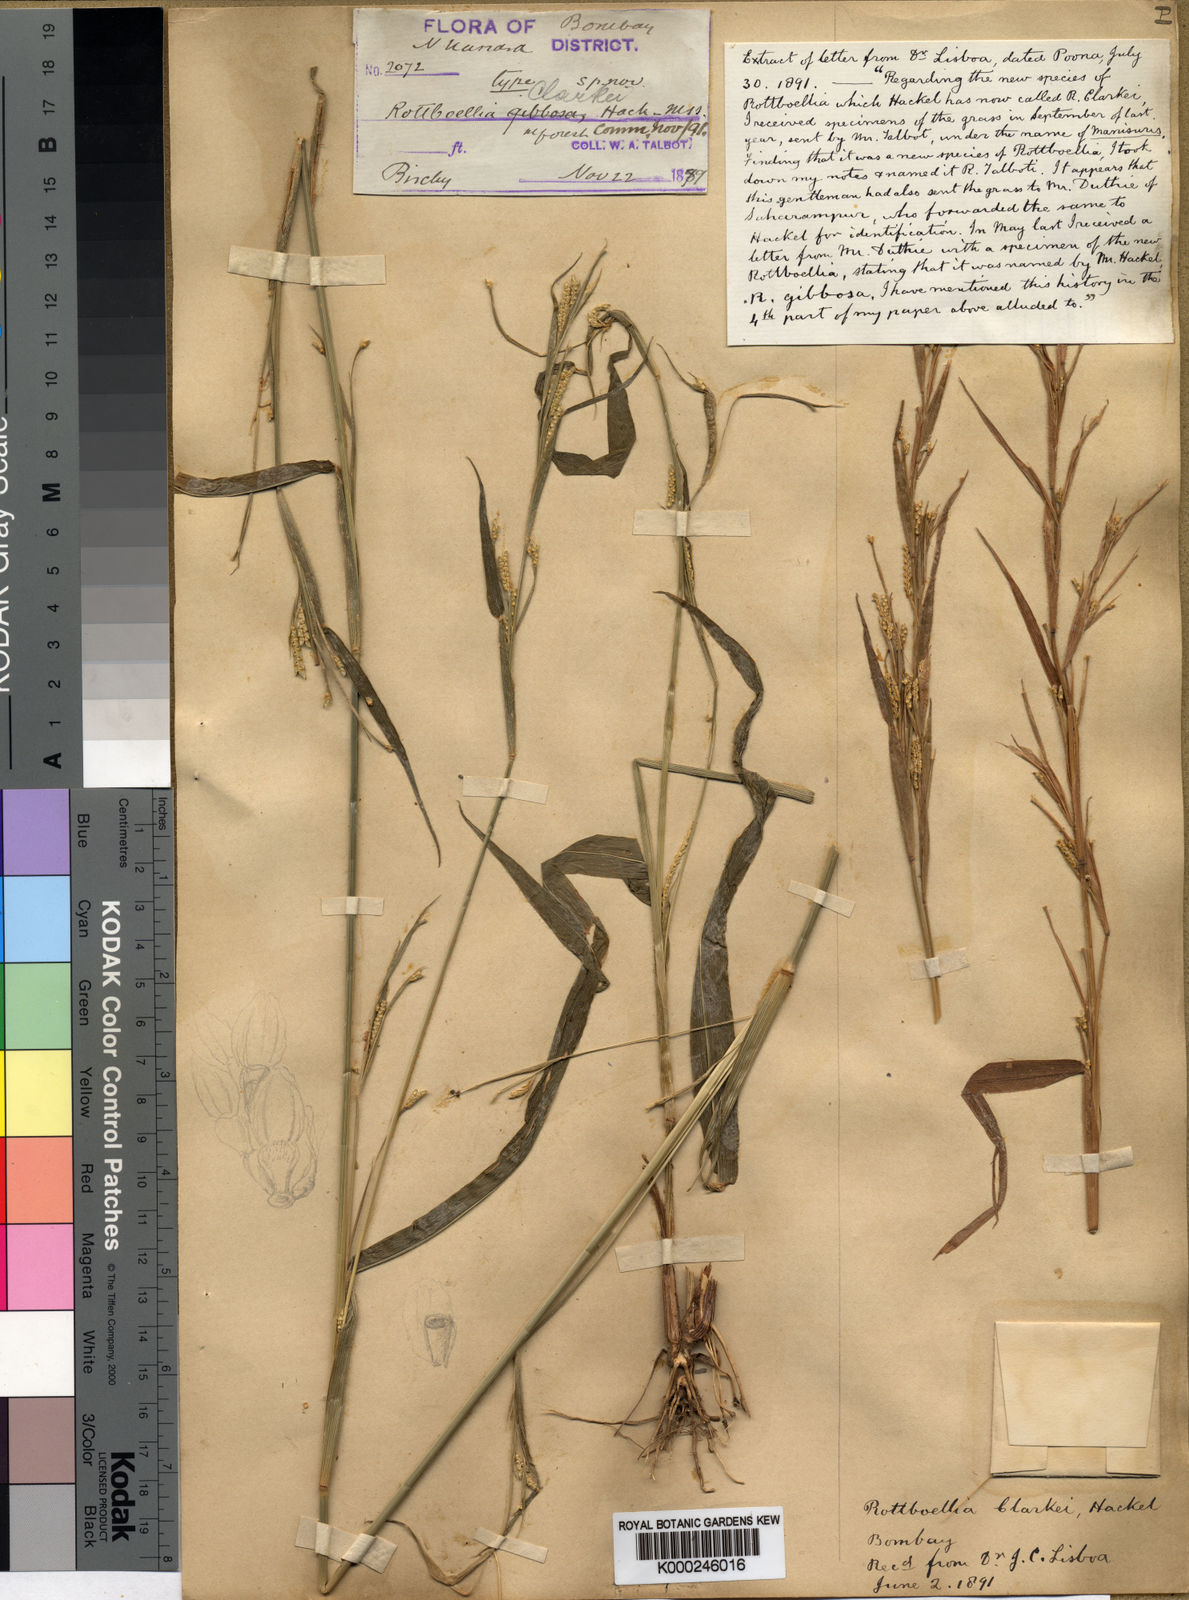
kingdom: Plantae
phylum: Tracheophyta
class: Liliopsida
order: Poales
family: Poaceae
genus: Rottboellia
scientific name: Rottboellia clarkei
